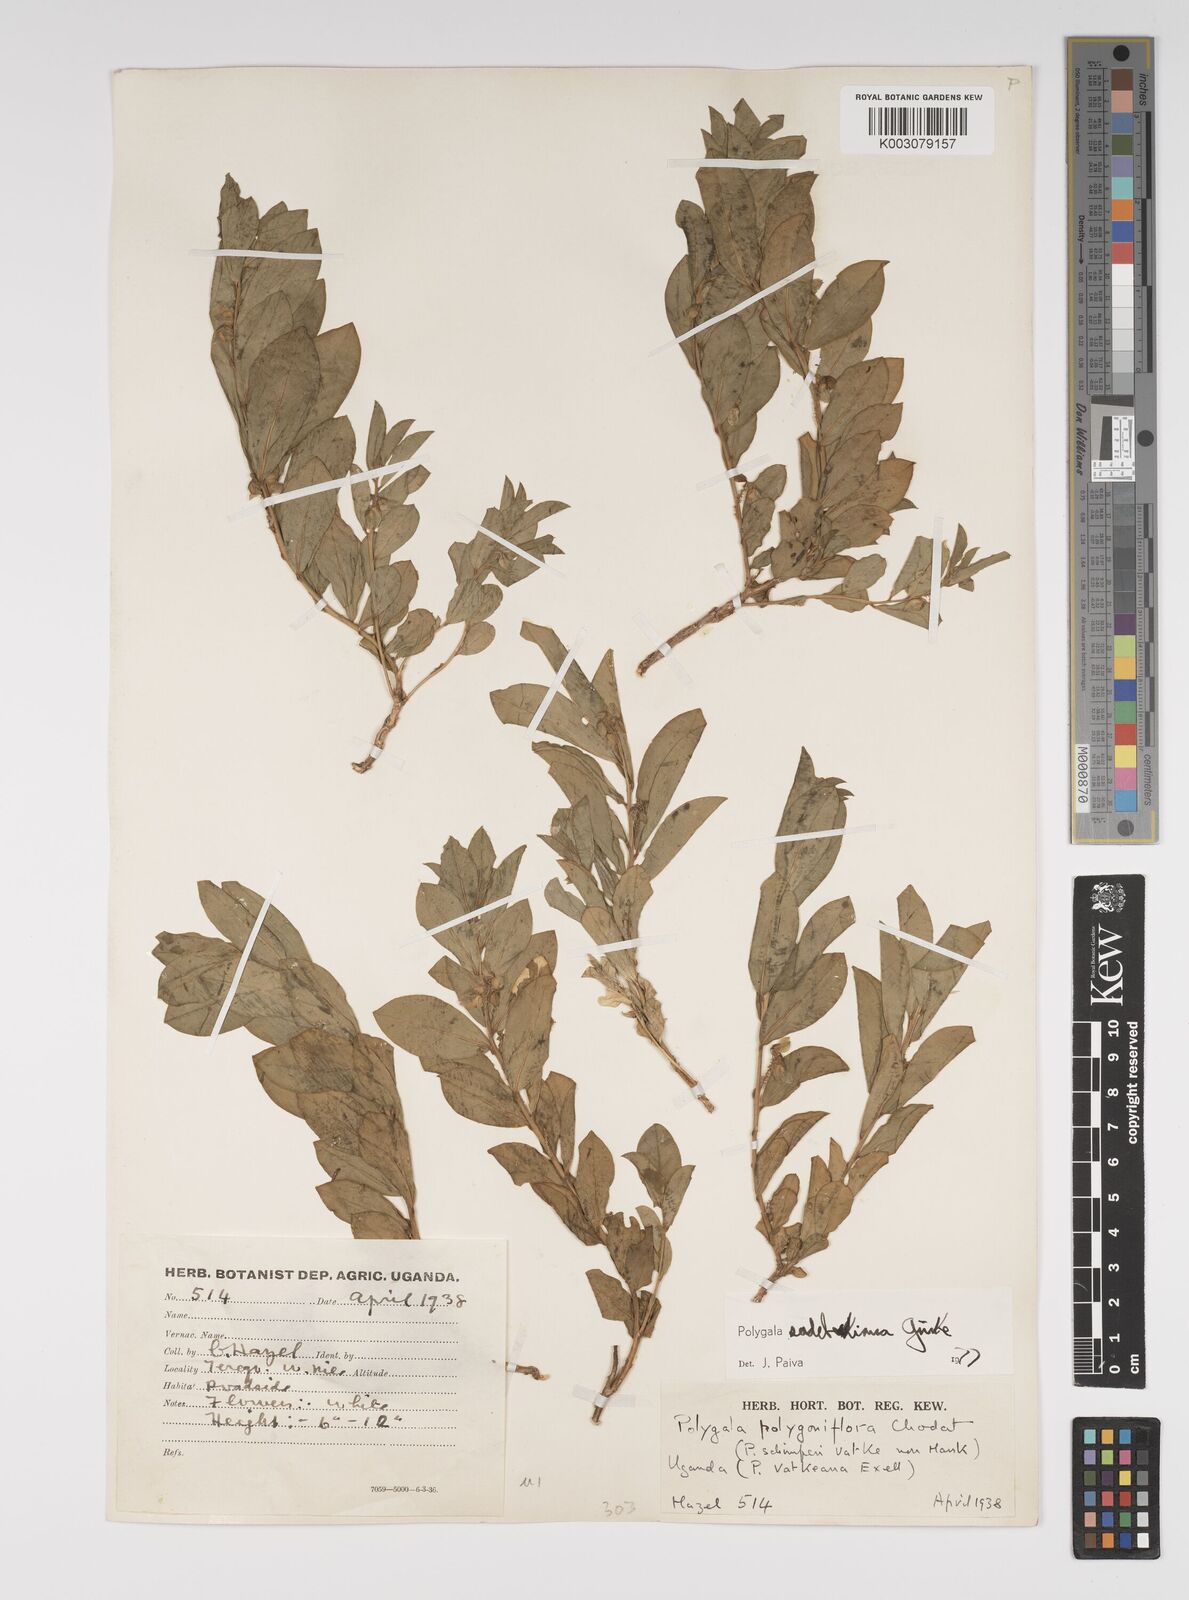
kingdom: Plantae
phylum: Tracheophyta
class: Magnoliopsida
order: Fabales
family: Polygalaceae
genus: Polygala
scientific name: Polygala sadebeckiana
